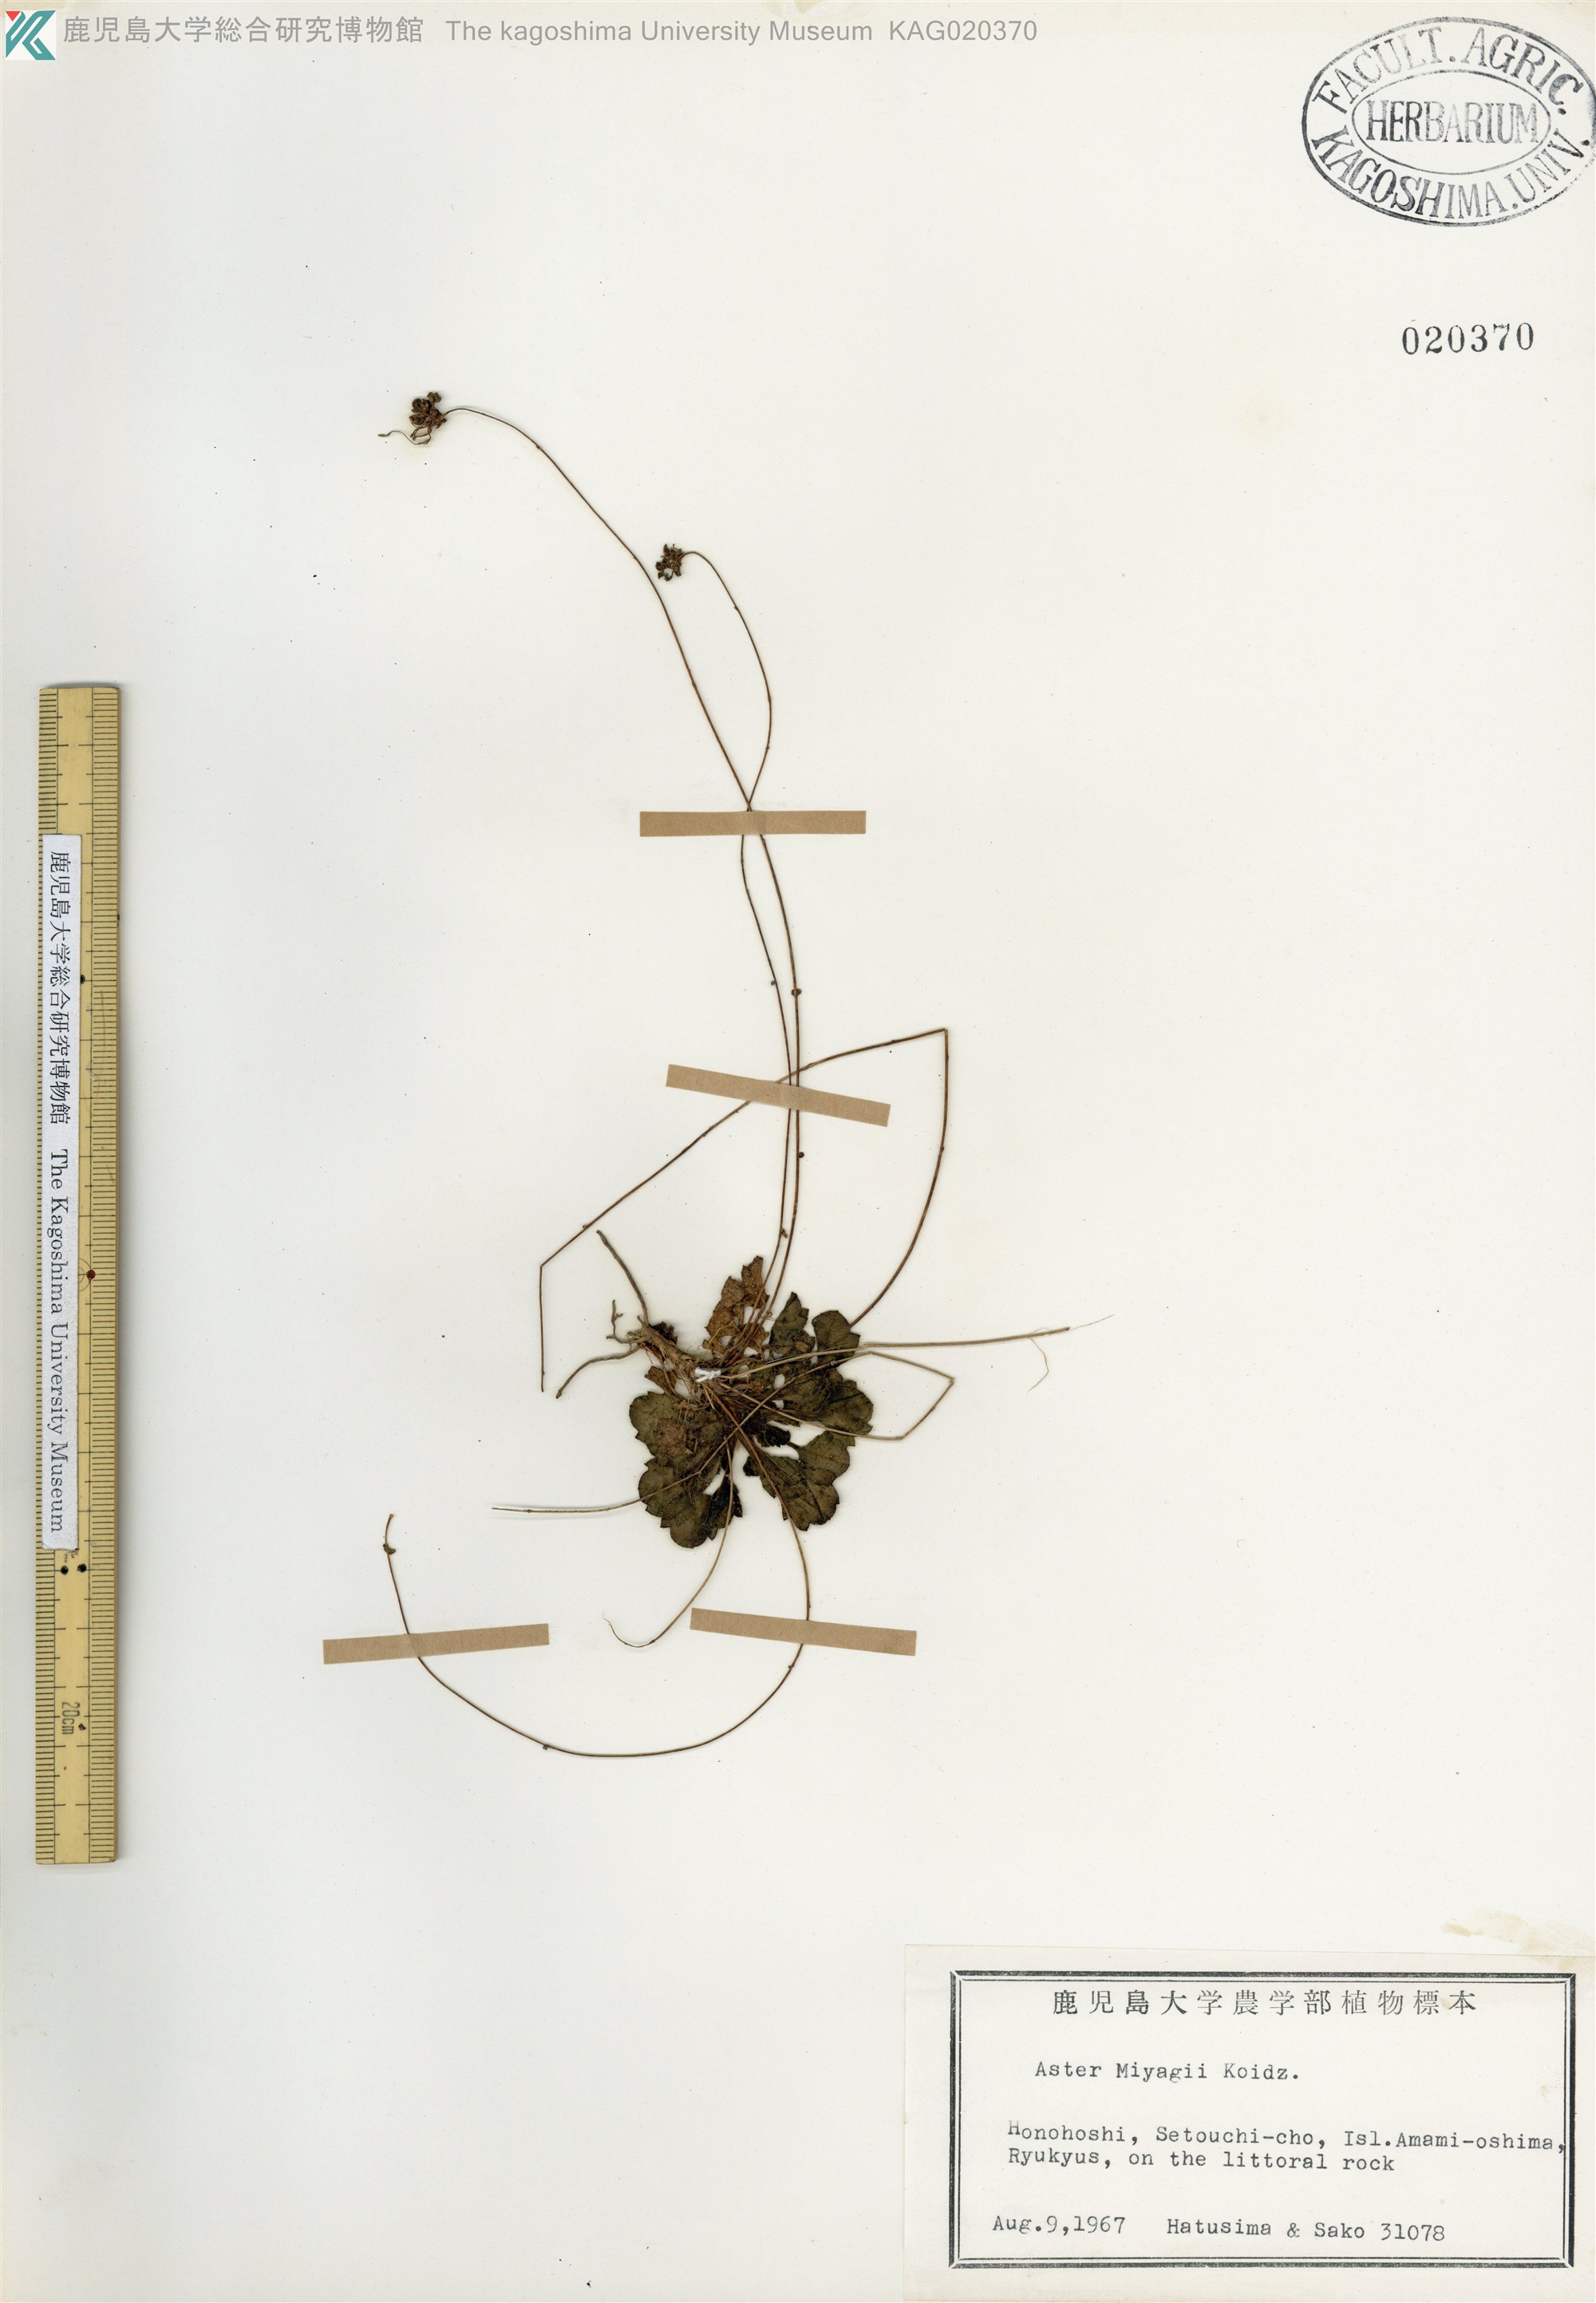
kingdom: Plantae
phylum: Tracheophyta
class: Magnoliopsida
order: Asterales
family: Asteraceae
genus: Aster
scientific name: Aster miyagii
